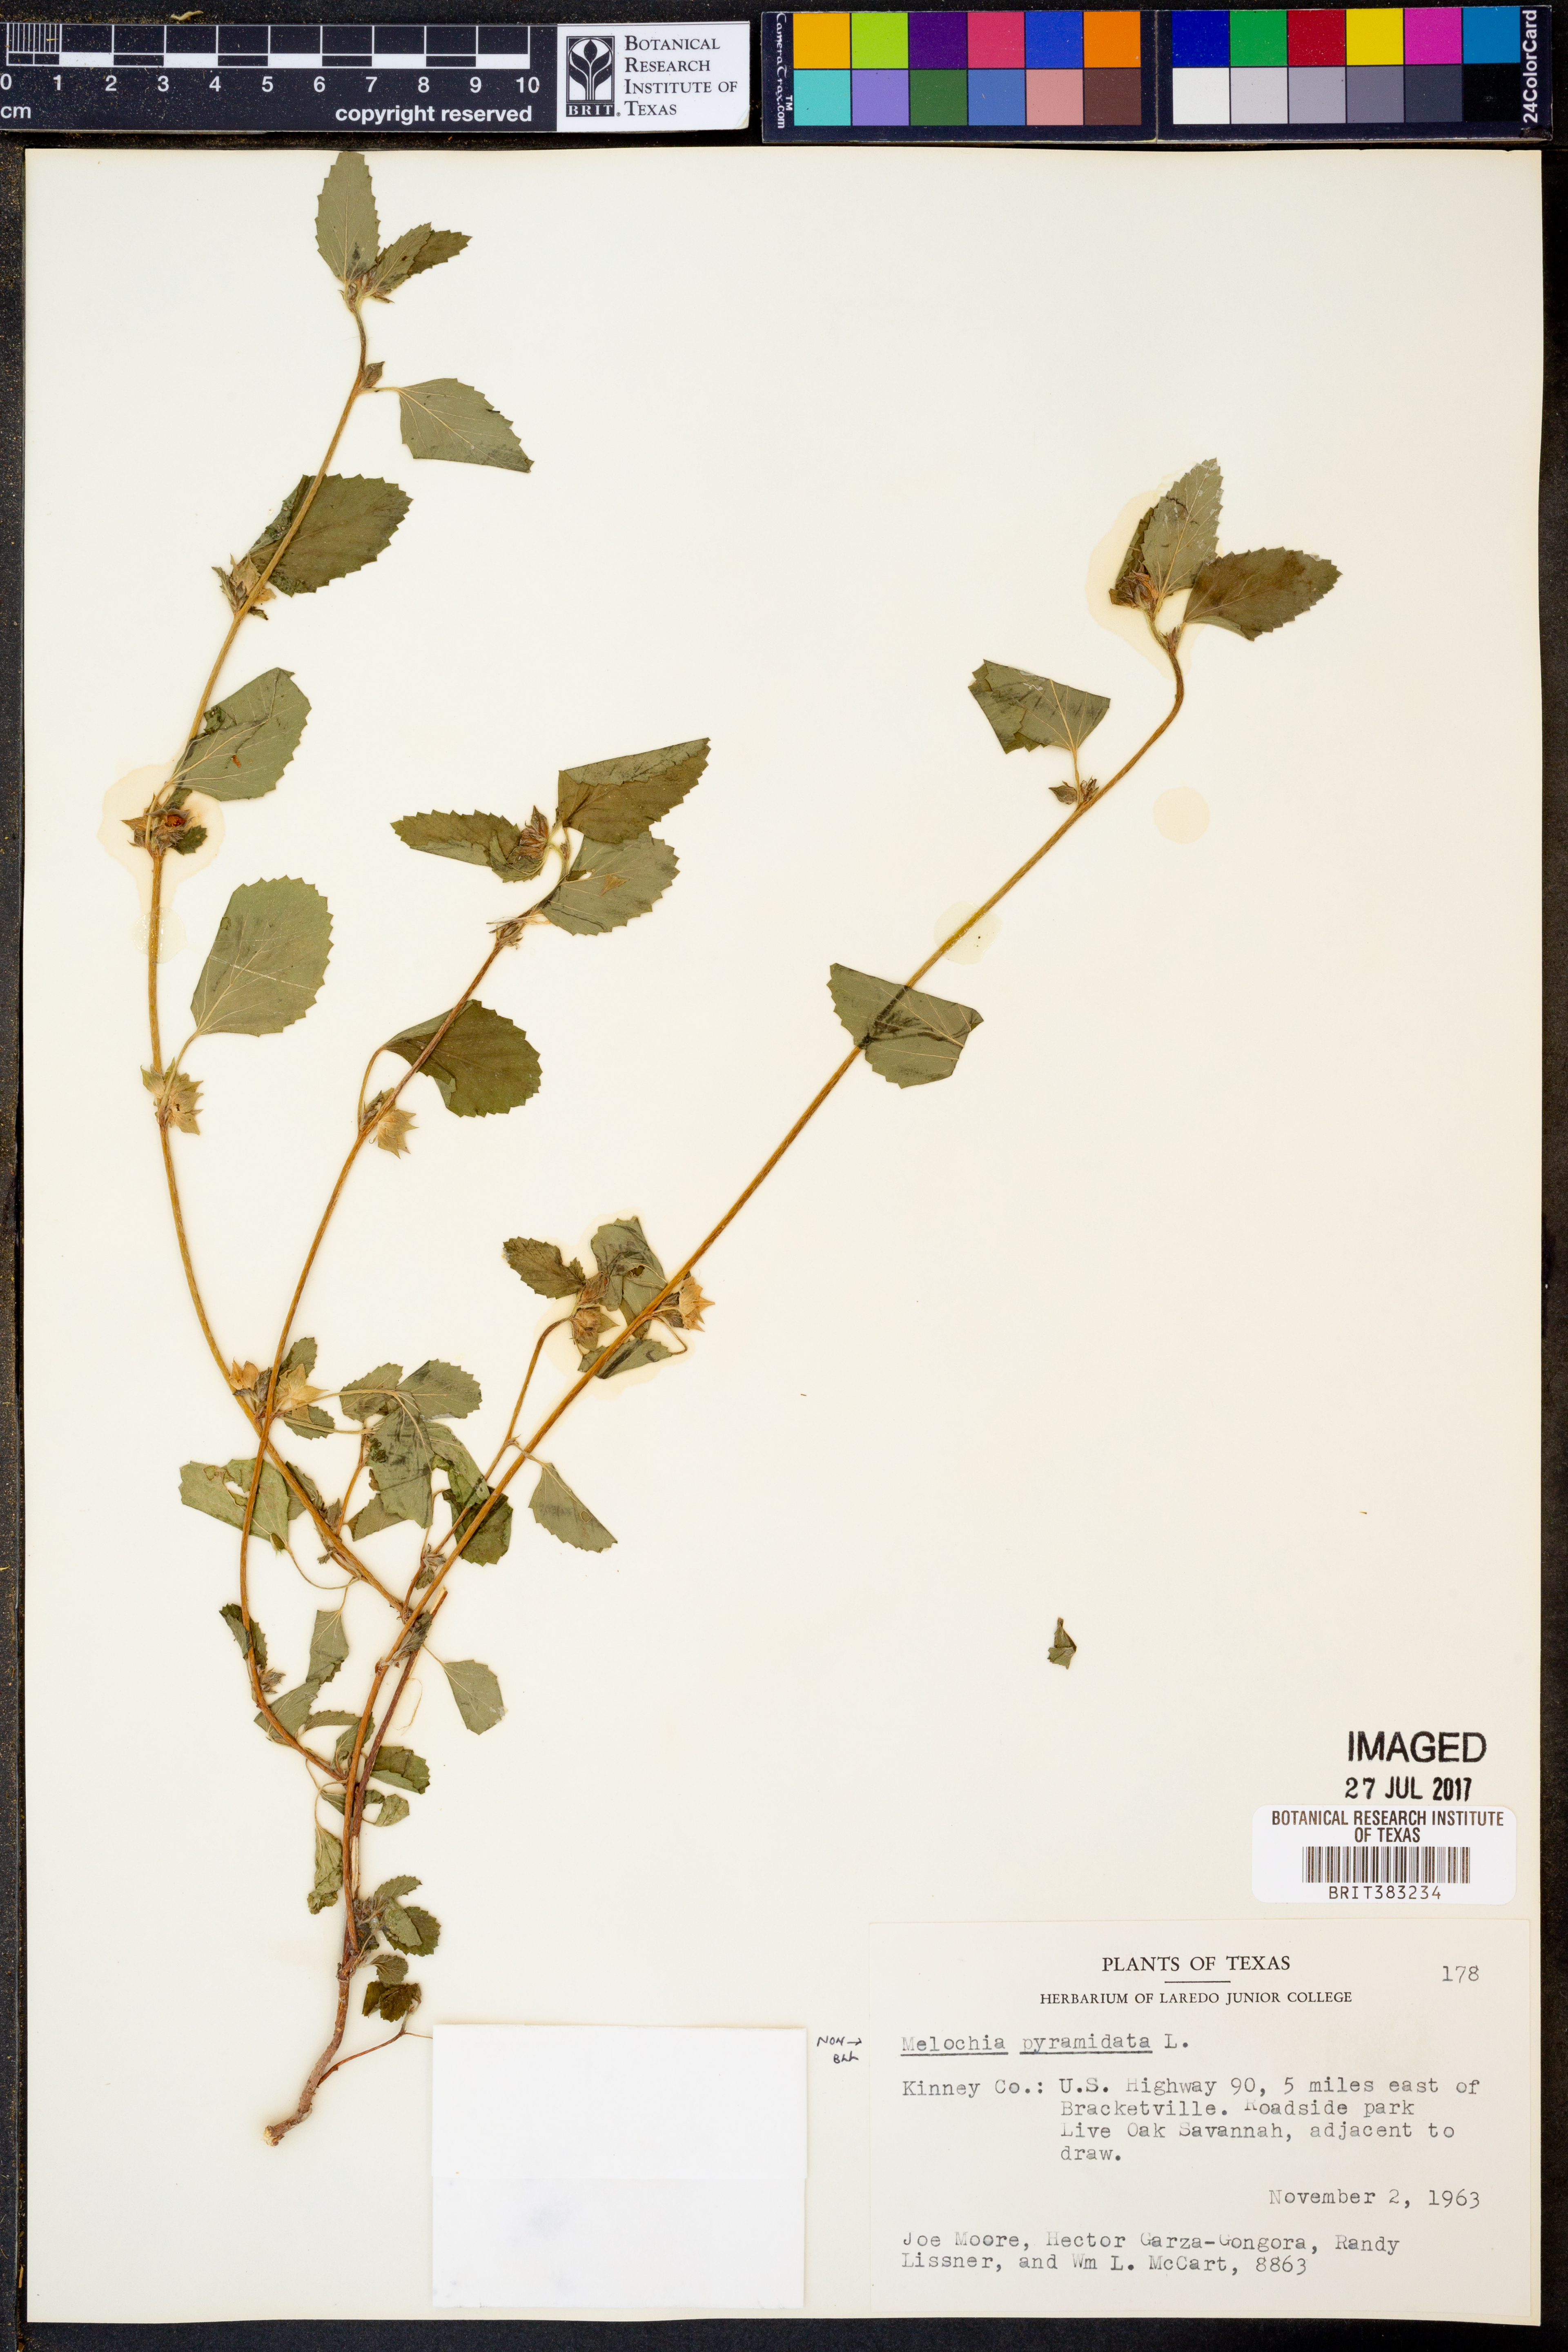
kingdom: Plantae
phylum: Tracheophyta
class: Magnoliopsida
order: Malvales
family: Malvaceae
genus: Melochia
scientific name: Melochia pyramidata
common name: Pyramidflower
